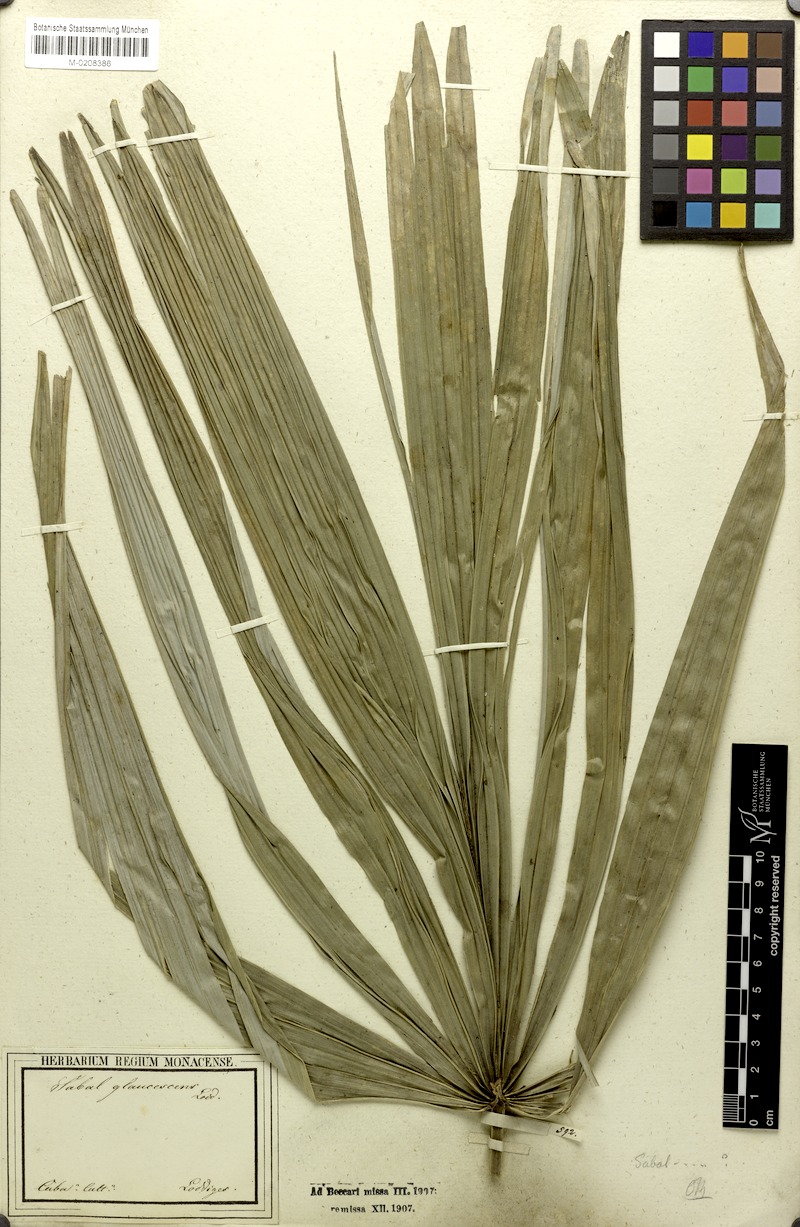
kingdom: Plantae
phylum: Tracheophyta
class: Liliopsida
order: Arecales
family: Arecaceae
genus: Sabal
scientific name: Sabal mauritiiformis
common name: Trinidad palm
